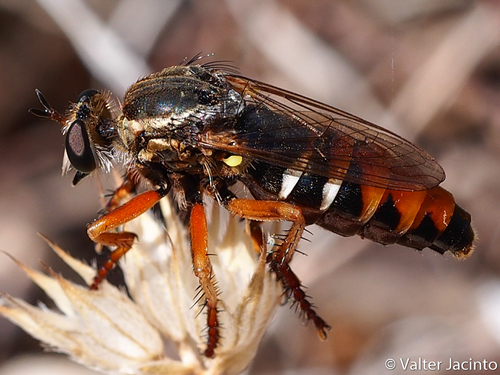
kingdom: Animalia
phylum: Arthropoda
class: Insecta
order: Diptera
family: Asilidae
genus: Saropogon
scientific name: Saropogon
